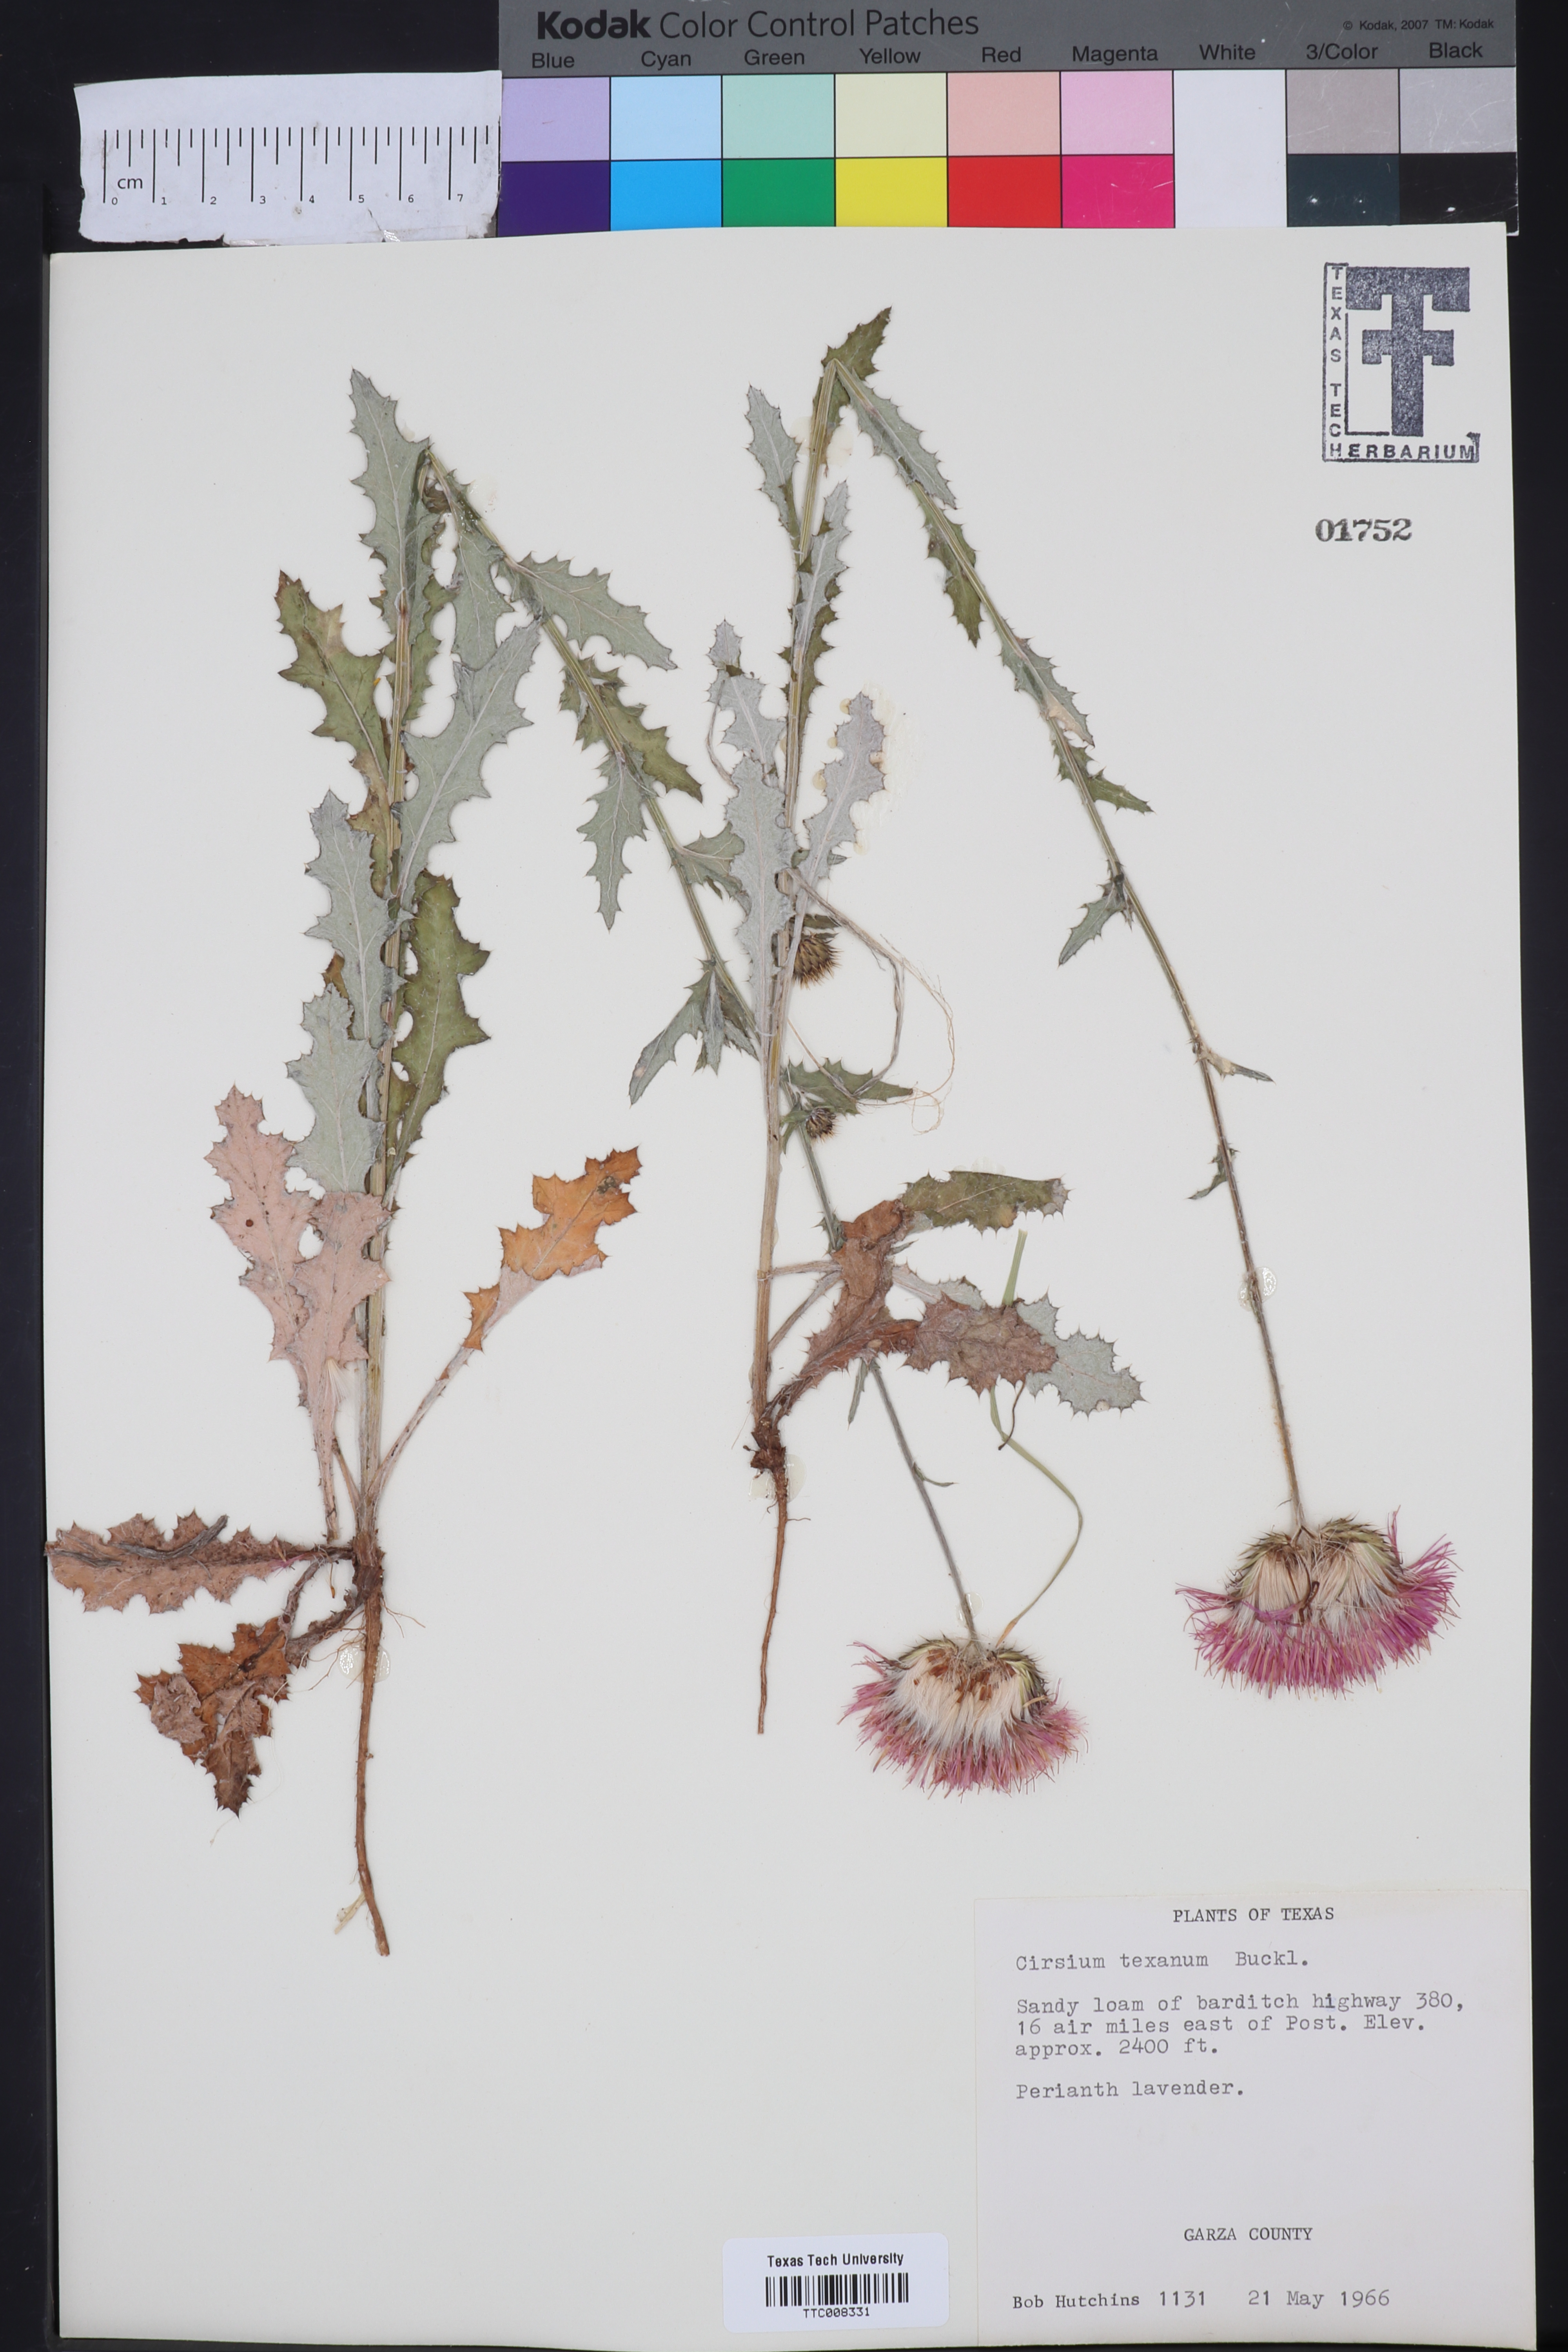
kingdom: Plantae
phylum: Tracheophyta
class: Magnoliopsida
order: Asterales
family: Asteraceae
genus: Cirsium
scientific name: Cirsium texanum
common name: Texas purple thistle
